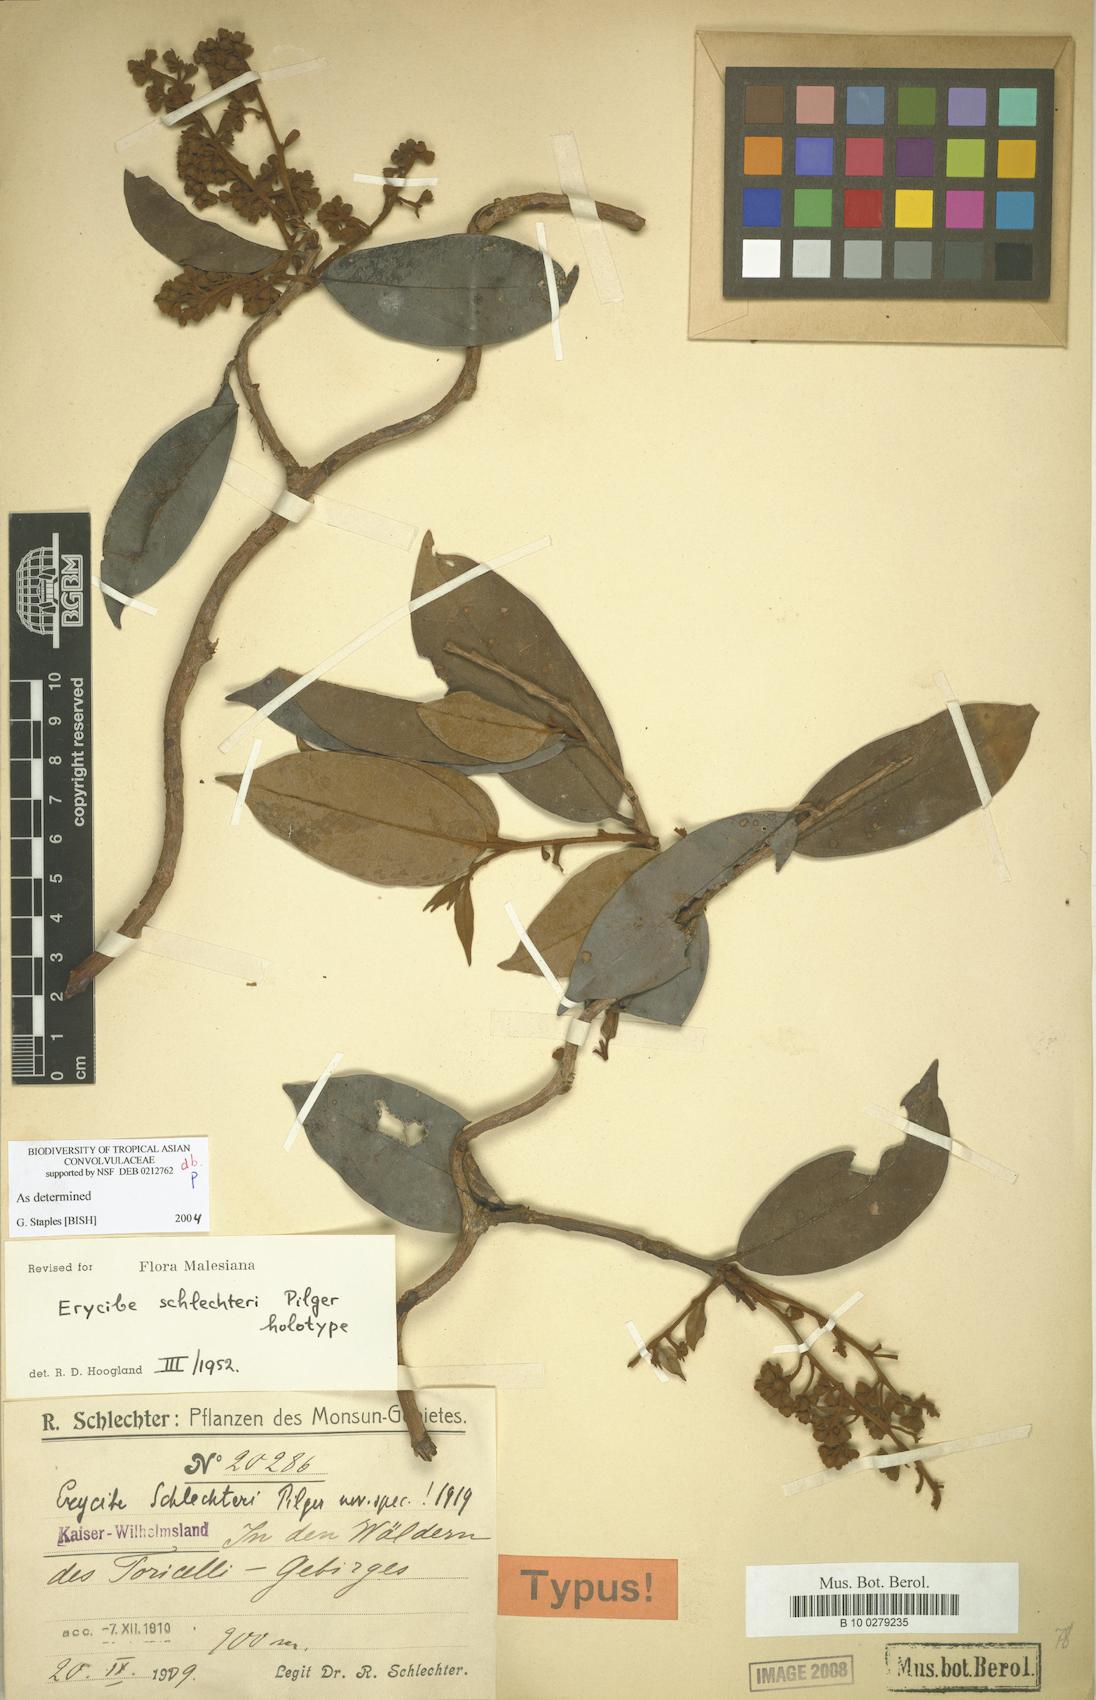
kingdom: Plantae
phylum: Tracheophyta
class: Magnoliopsida
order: Solanales
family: Convolvulaceae
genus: Erycibe
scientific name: Erycibe schlechteri
